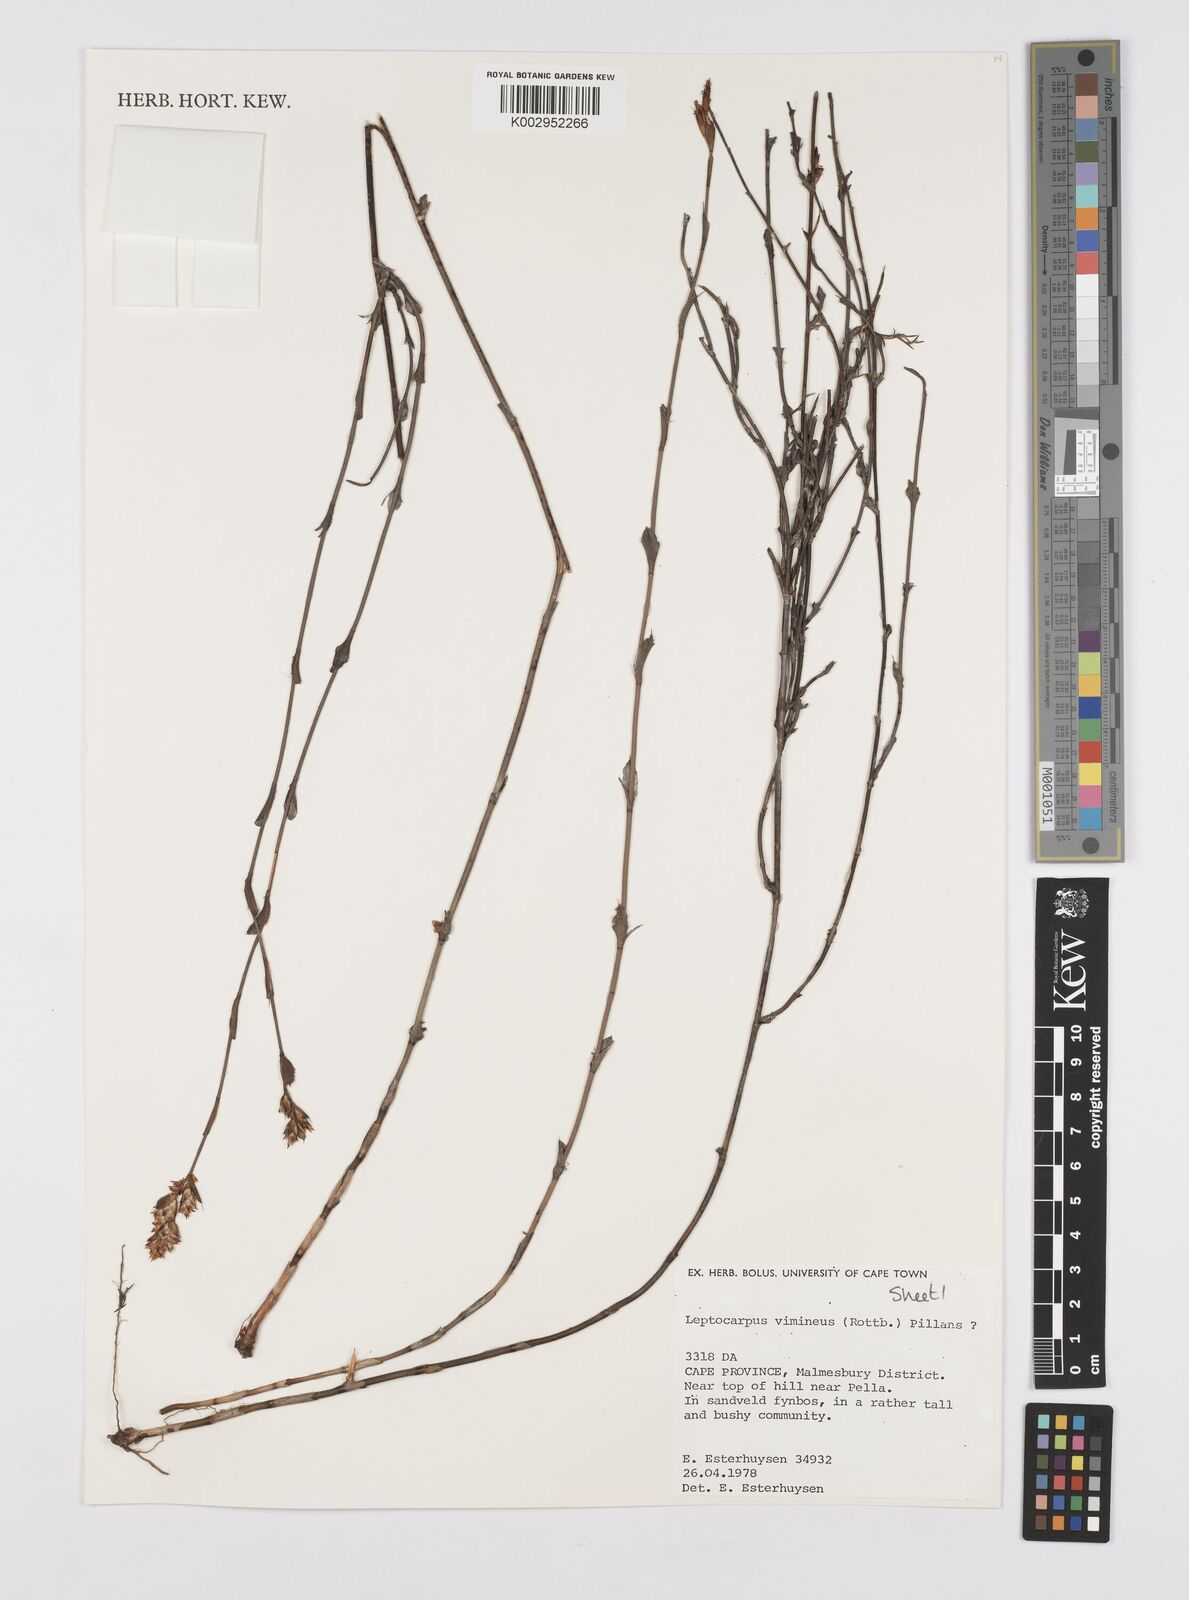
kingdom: Plantae
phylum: Tracheophyta
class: Liliopsida
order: Poales
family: Restionaceae
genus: Restio
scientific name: Restio vimineus
